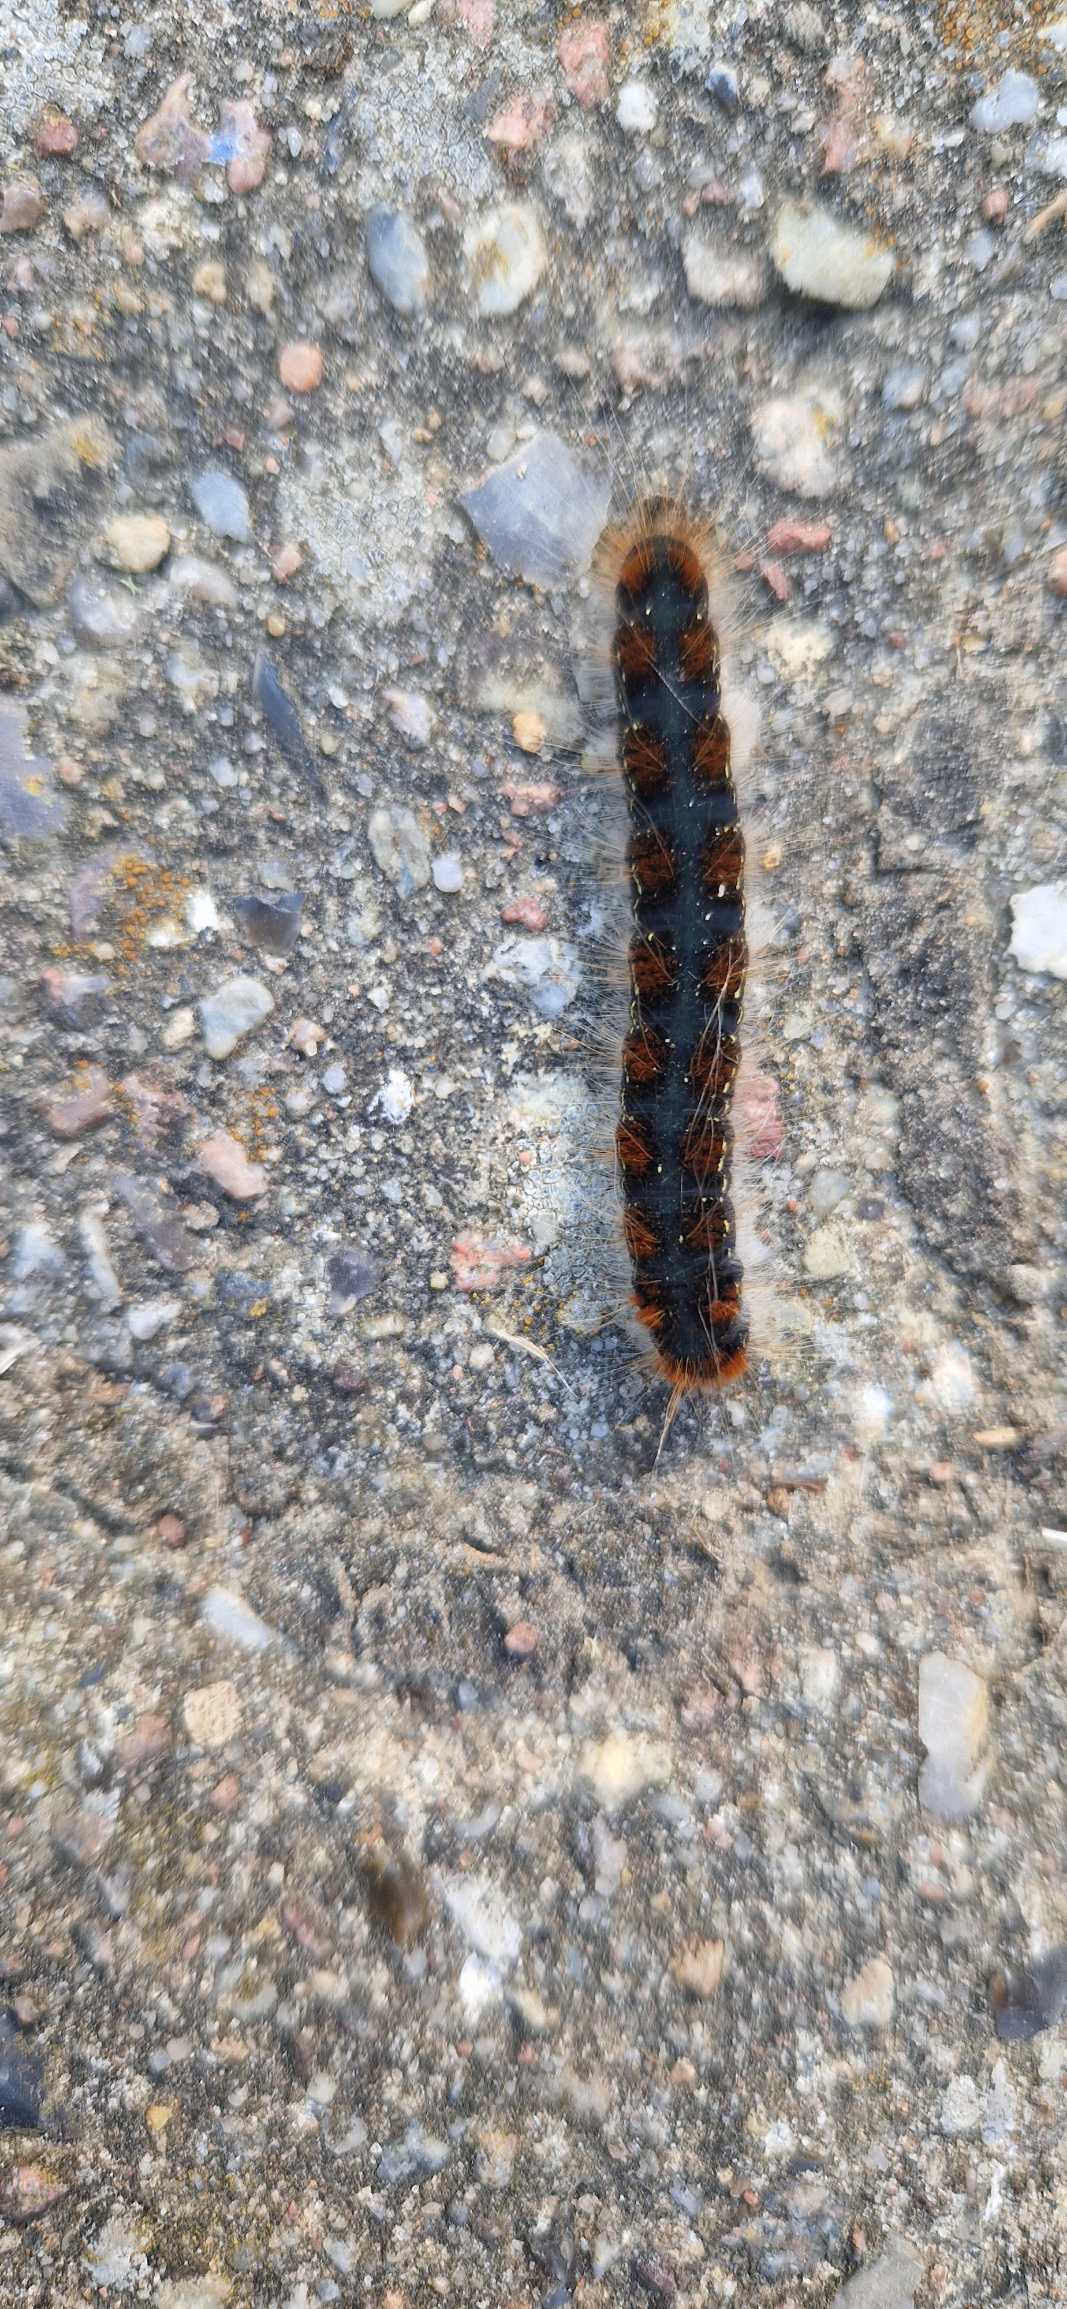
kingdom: Animalia
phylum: Arthropoda
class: Insecta
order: Lepidoptera
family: Lasiocampidae
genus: Eriogaster
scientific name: Eriogaster lanestris
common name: Uldhale
